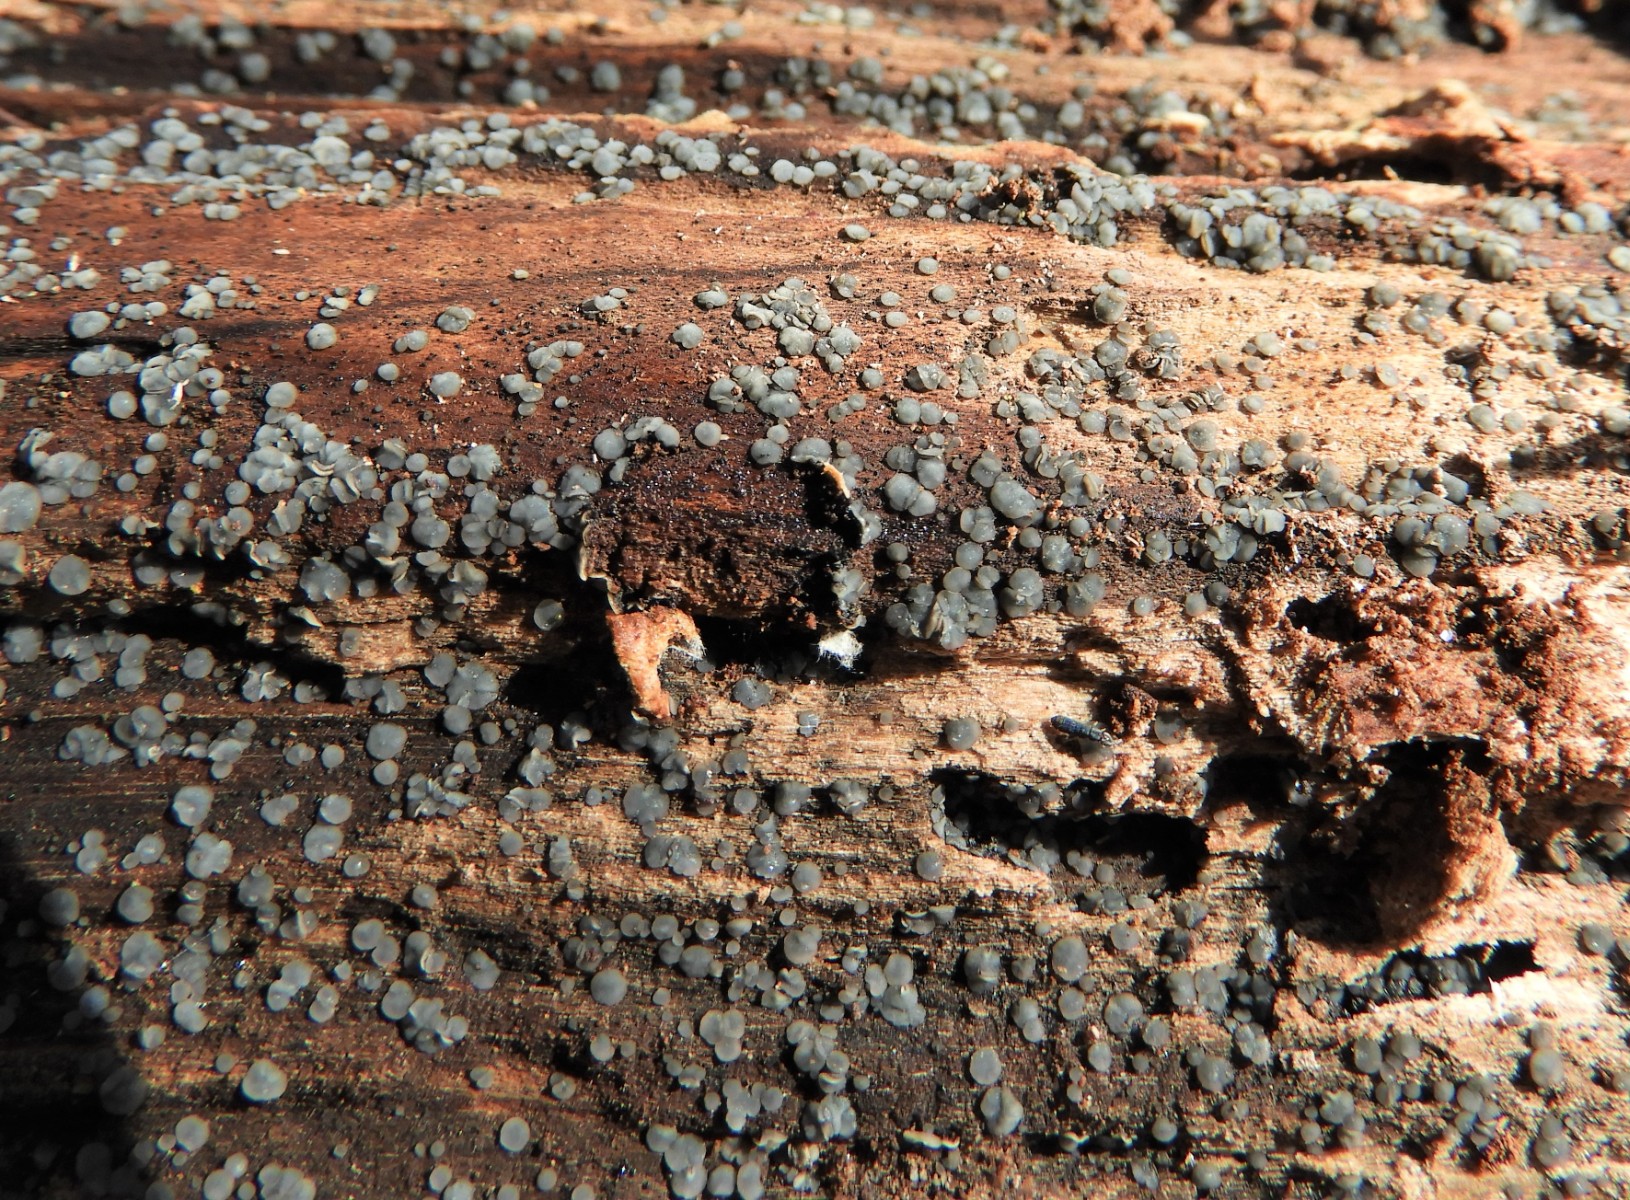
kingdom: Fungi
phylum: Ascomycota
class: Leotiomycetes
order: Helotiales
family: Mollisiaceae
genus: Mollisia
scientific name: Mollisia
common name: gråskive
